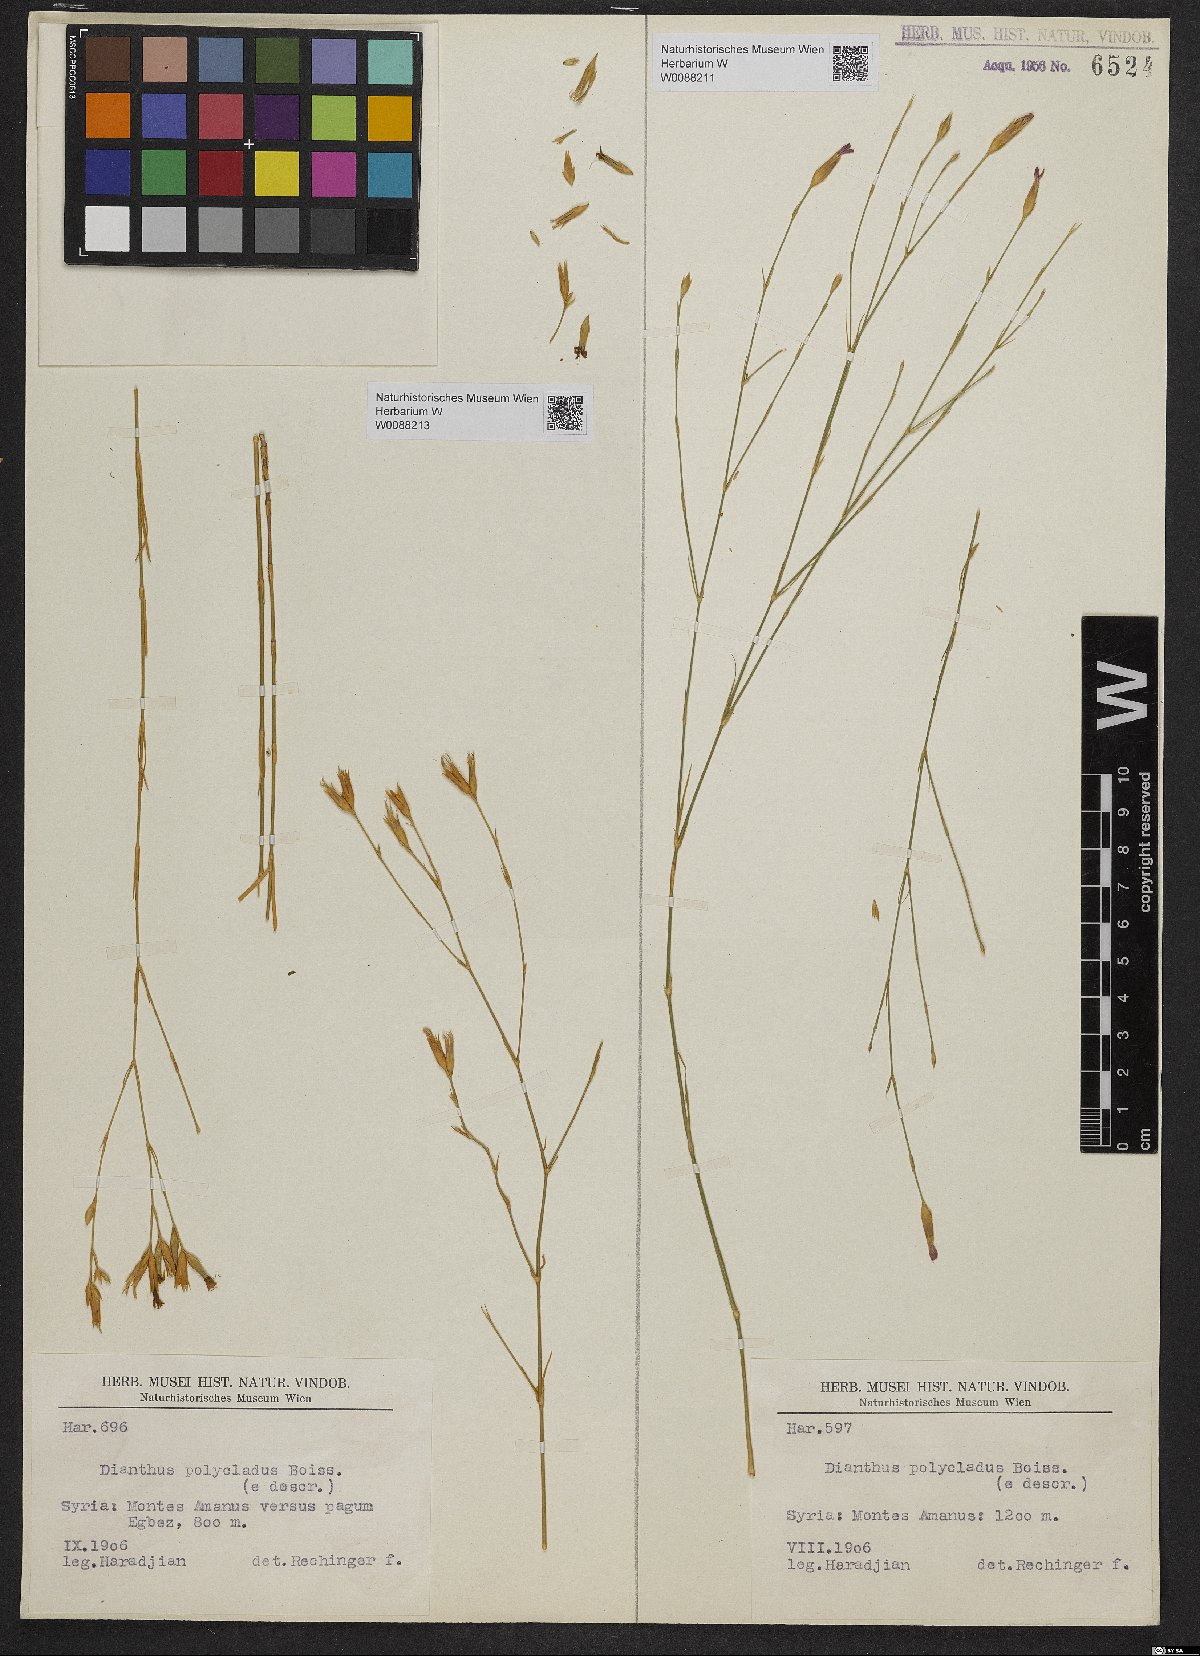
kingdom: Plantae
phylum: Tracheophyta
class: Magnoliopsida
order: Caryophyllales
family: Caryophyllaceae
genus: Dianthus
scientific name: Dianthus strictus
